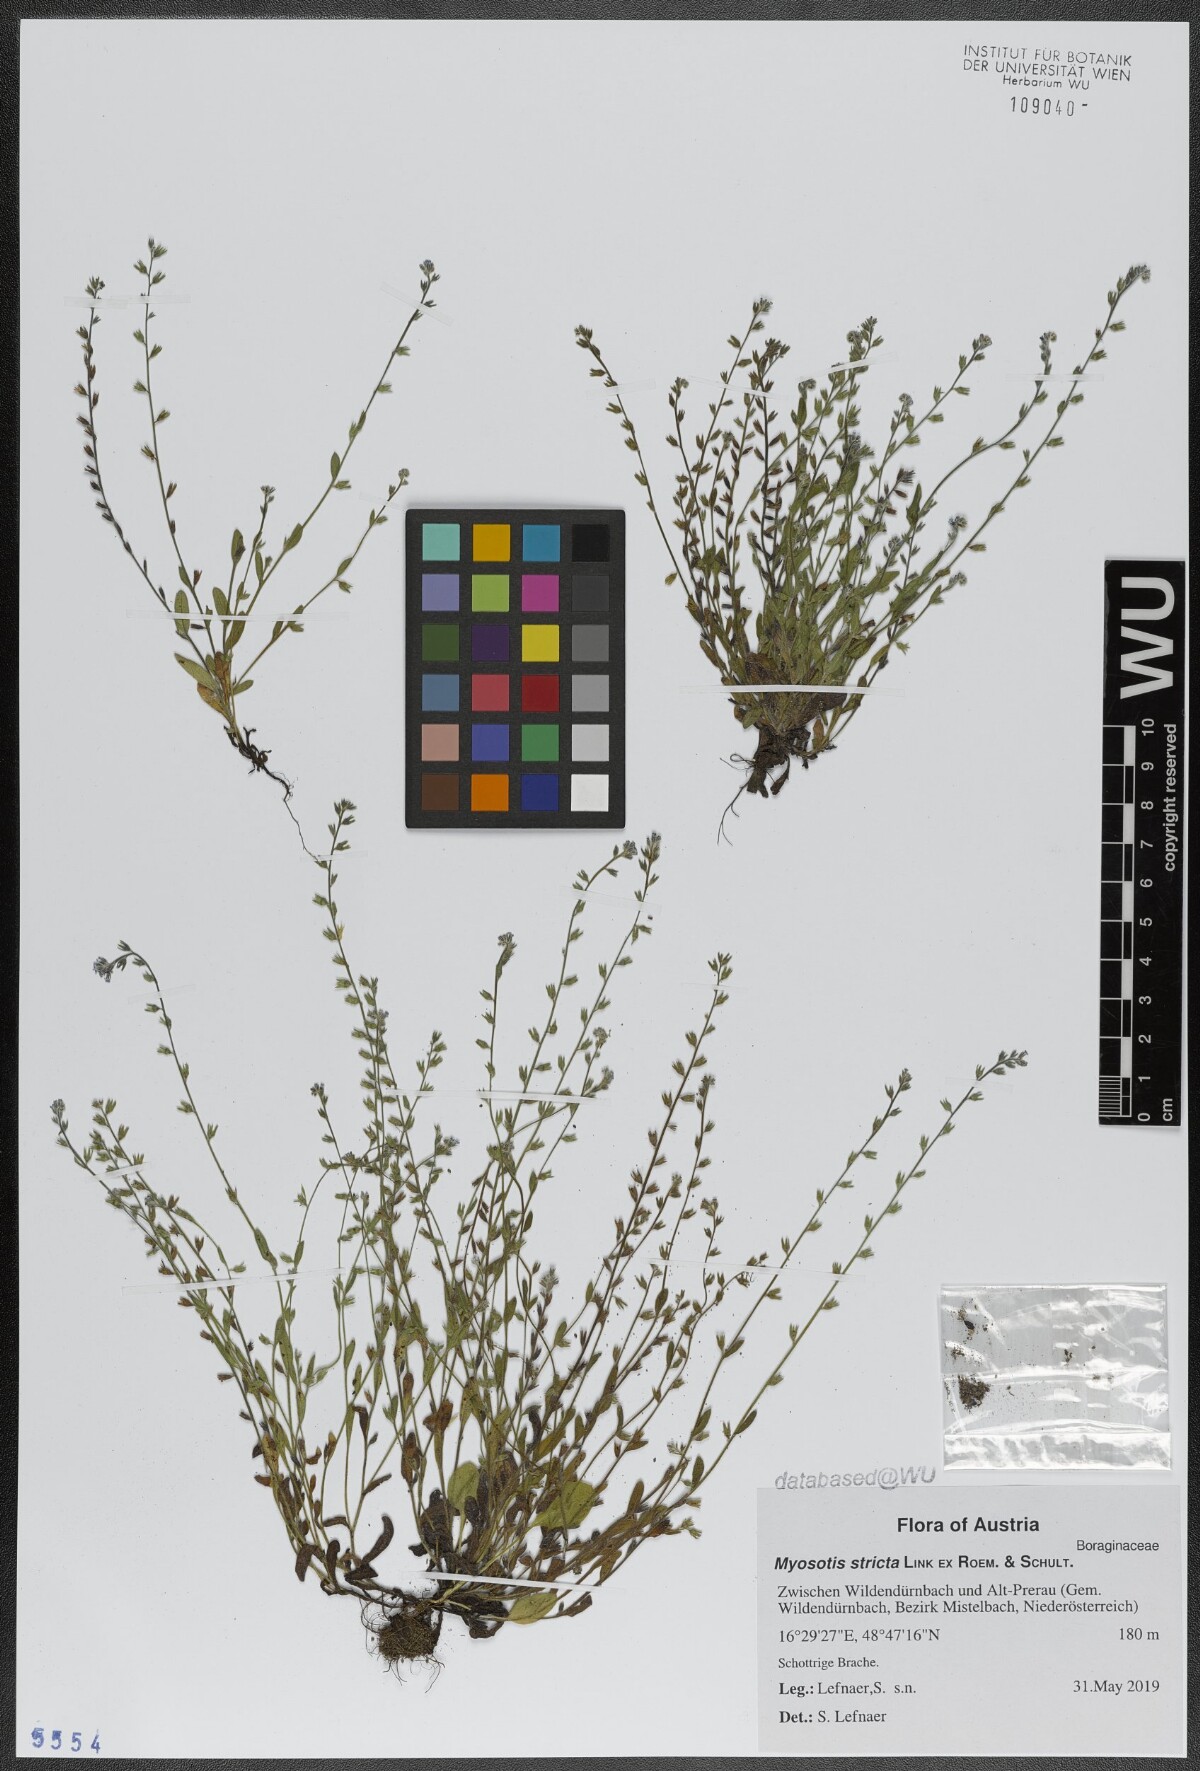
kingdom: Plantae
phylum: Tracheophyta
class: Magnoliopsida
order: Boraginales
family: Boraginaceae
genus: Myosotis
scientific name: Myosotis stricta
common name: Strict forget-me-not
